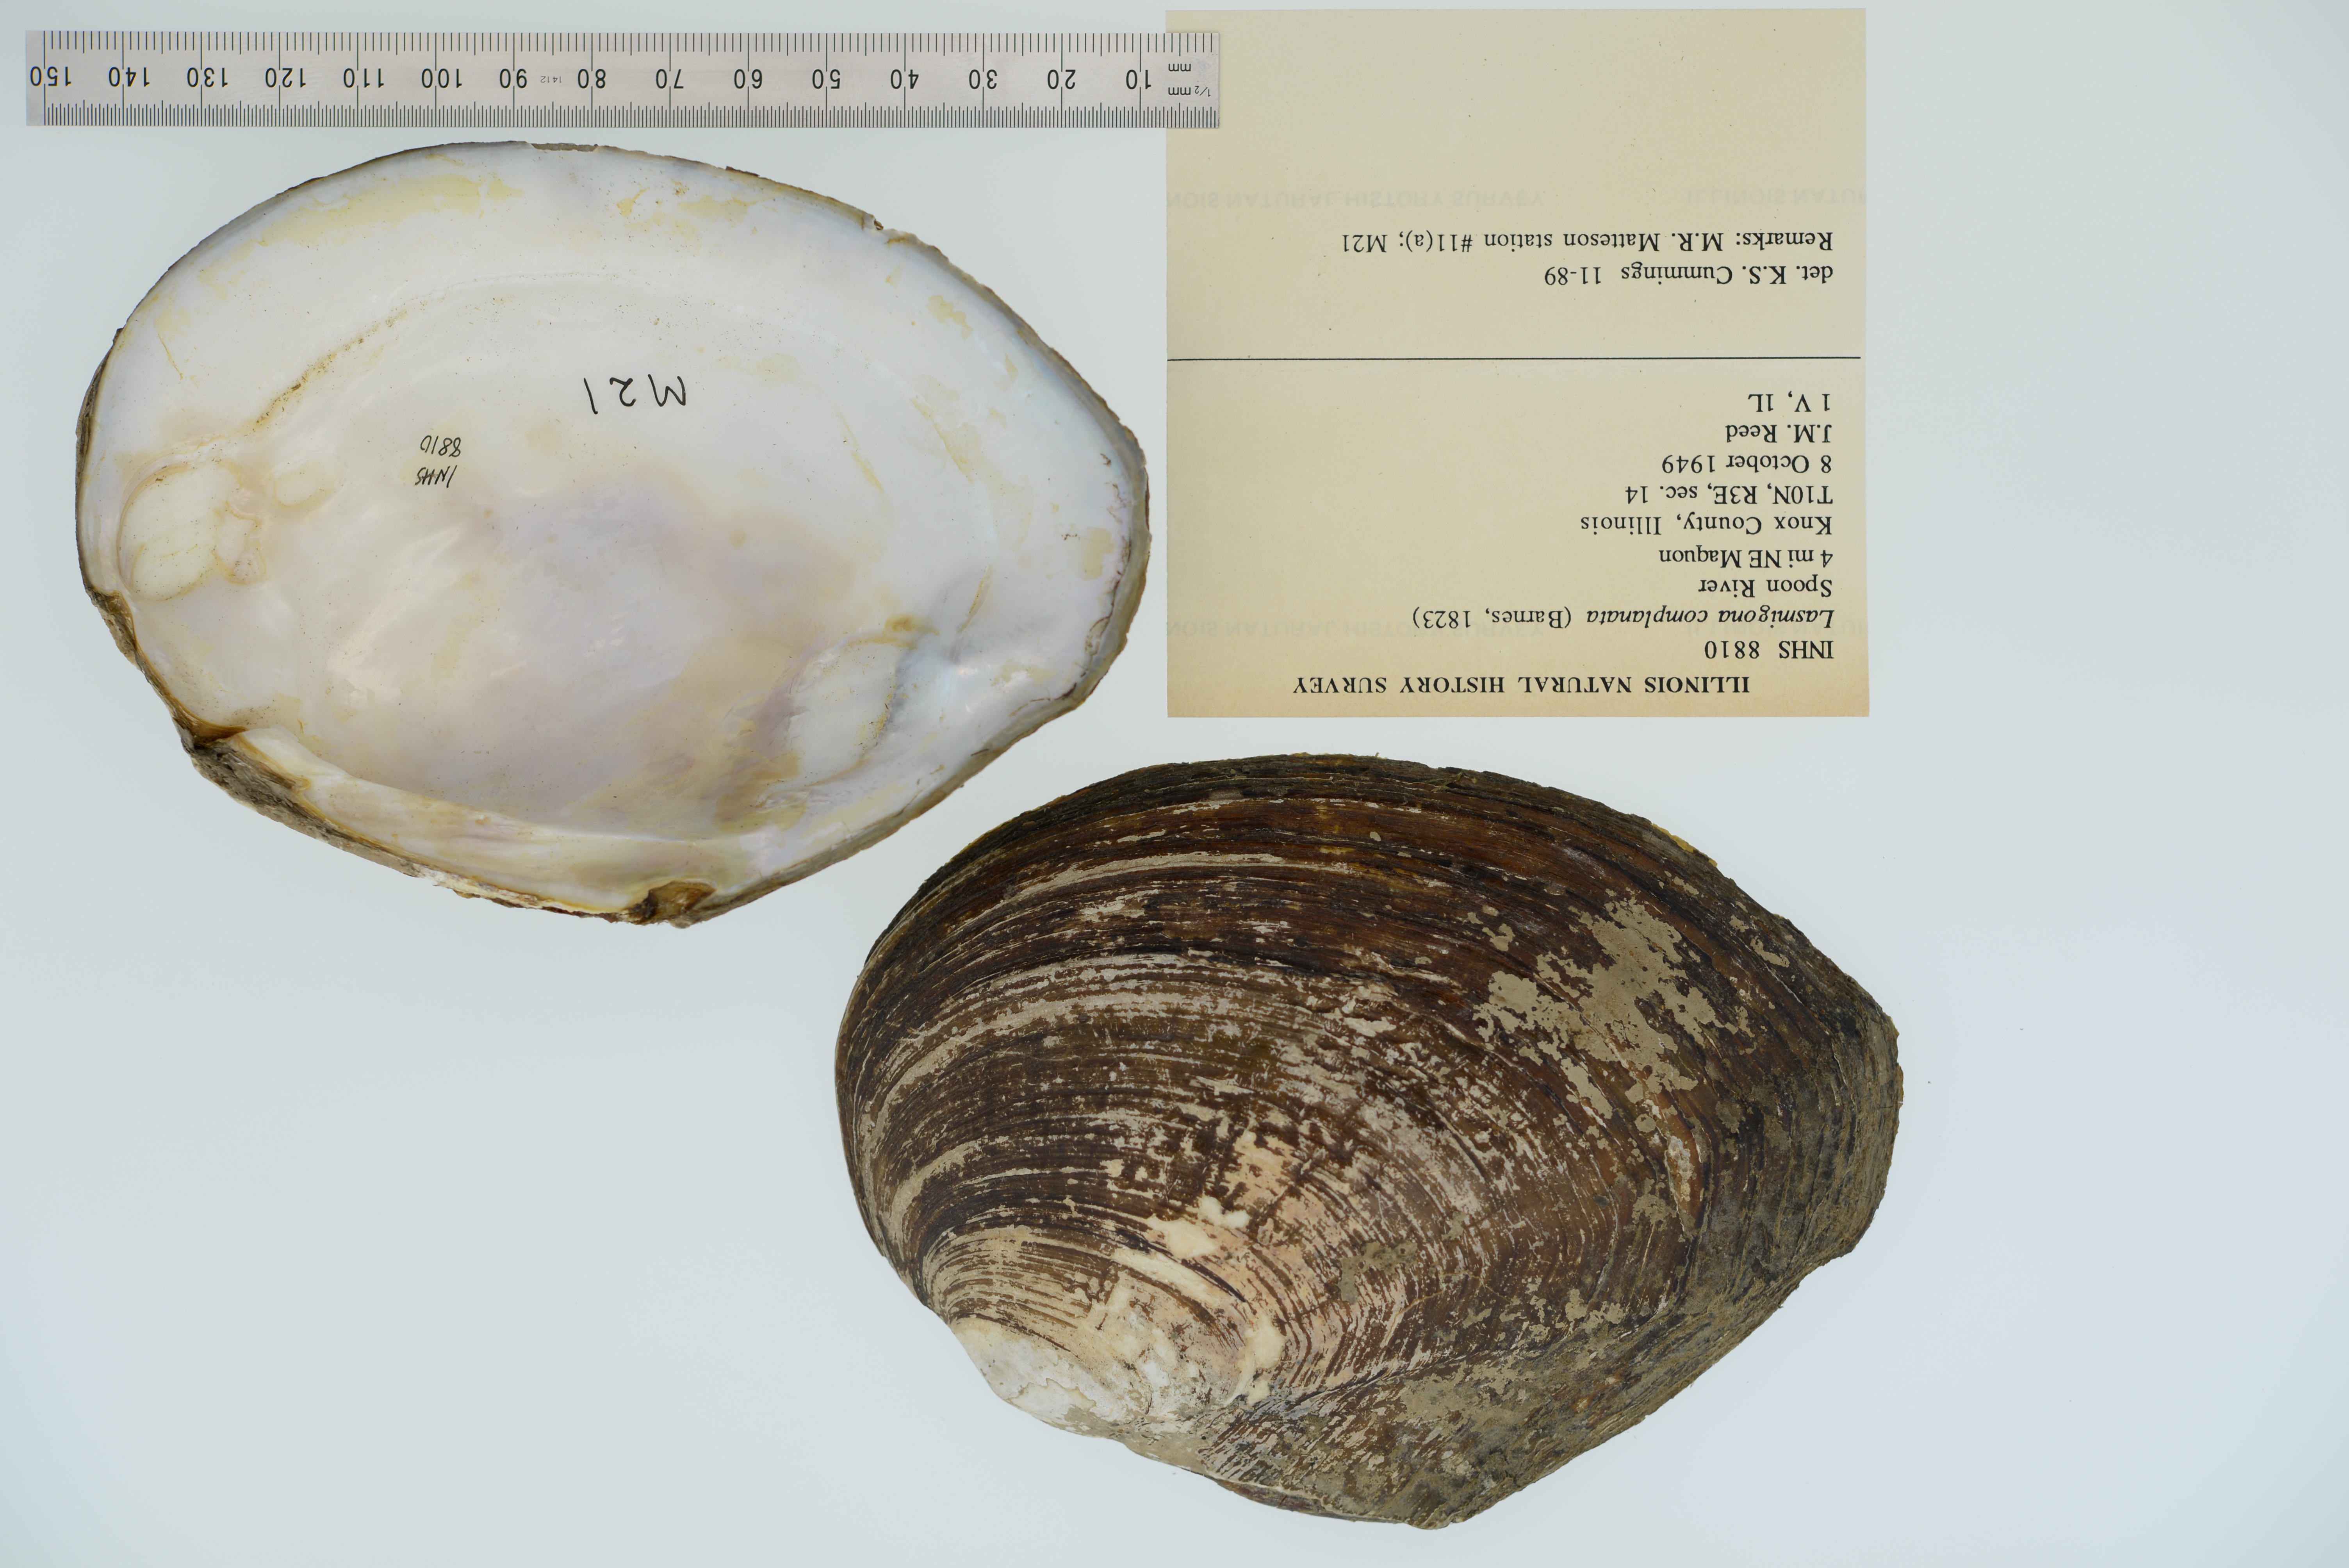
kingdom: Animalia
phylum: Mollusca
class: Bivalvia
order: Unionida
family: Unionidae
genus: Lasmigona
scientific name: Lasmigona complanata
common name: White heelsplitter
